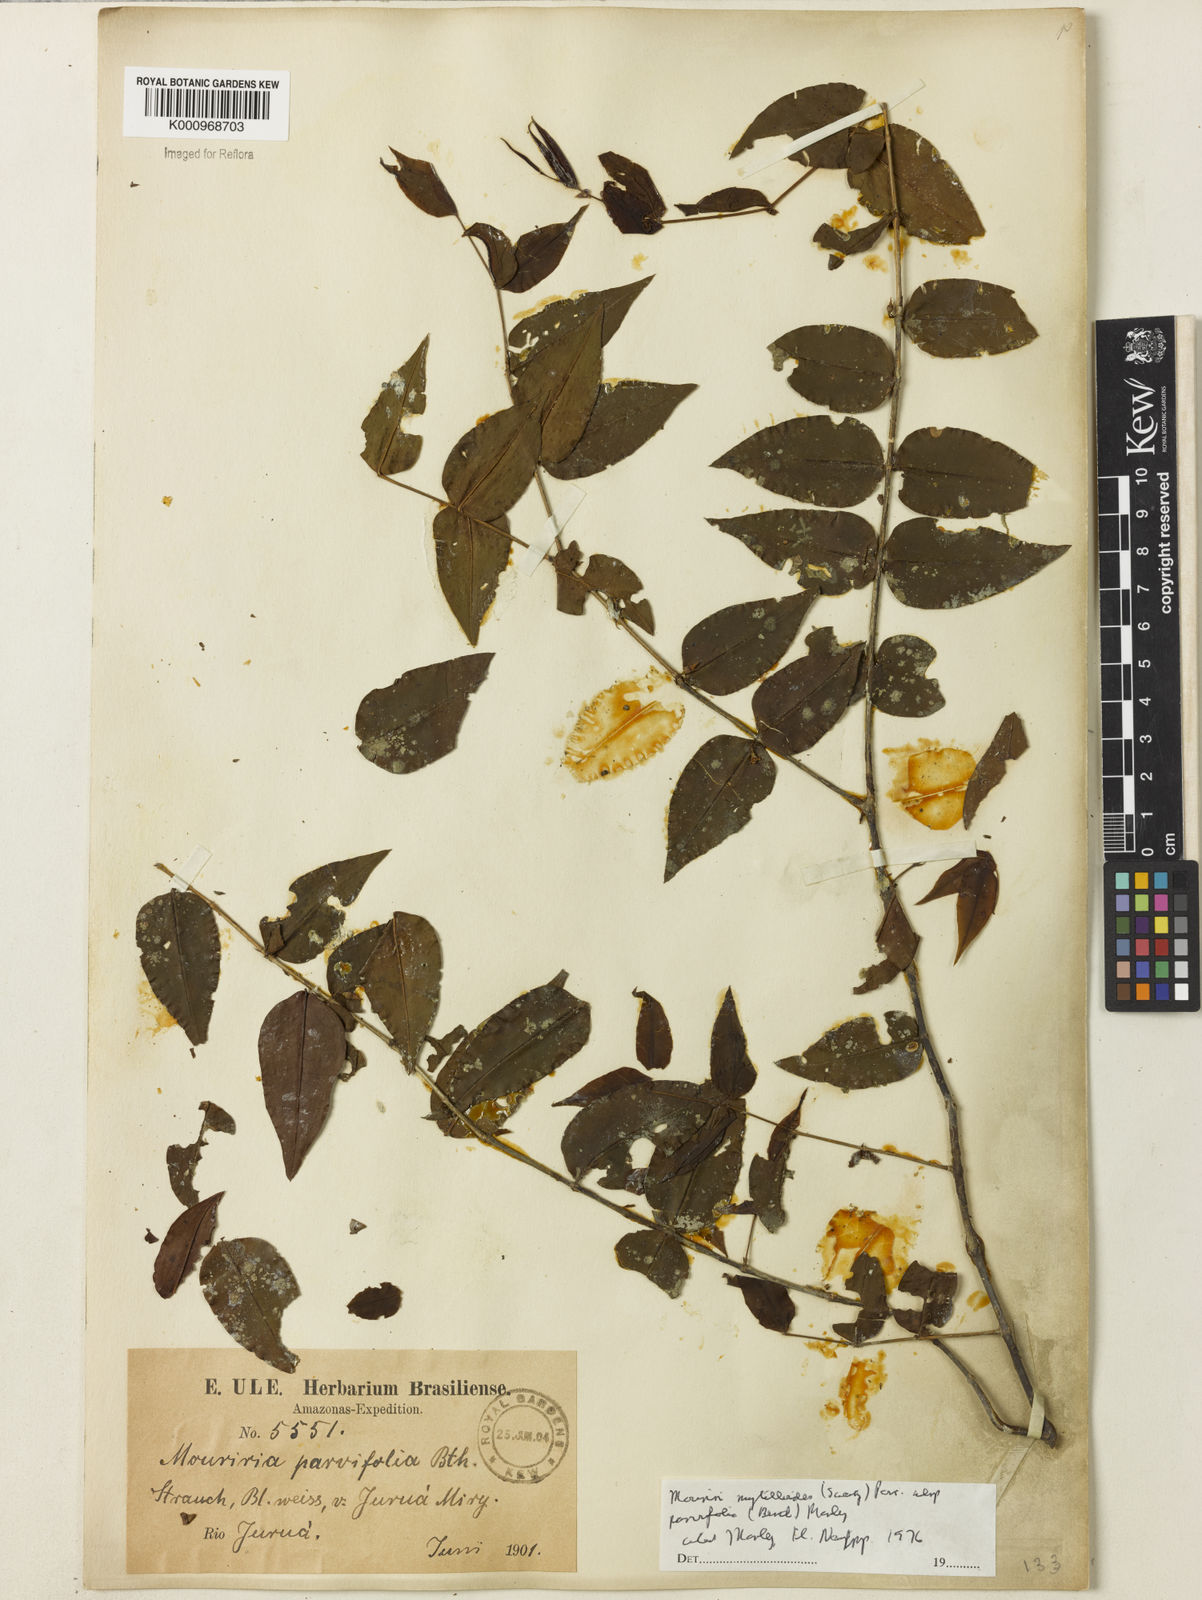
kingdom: Plantae
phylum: Tracheophyta
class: Magnoliopsida
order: Myrtales
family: Melastomataceae
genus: Mouriri
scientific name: Mouriri myrtilloides
